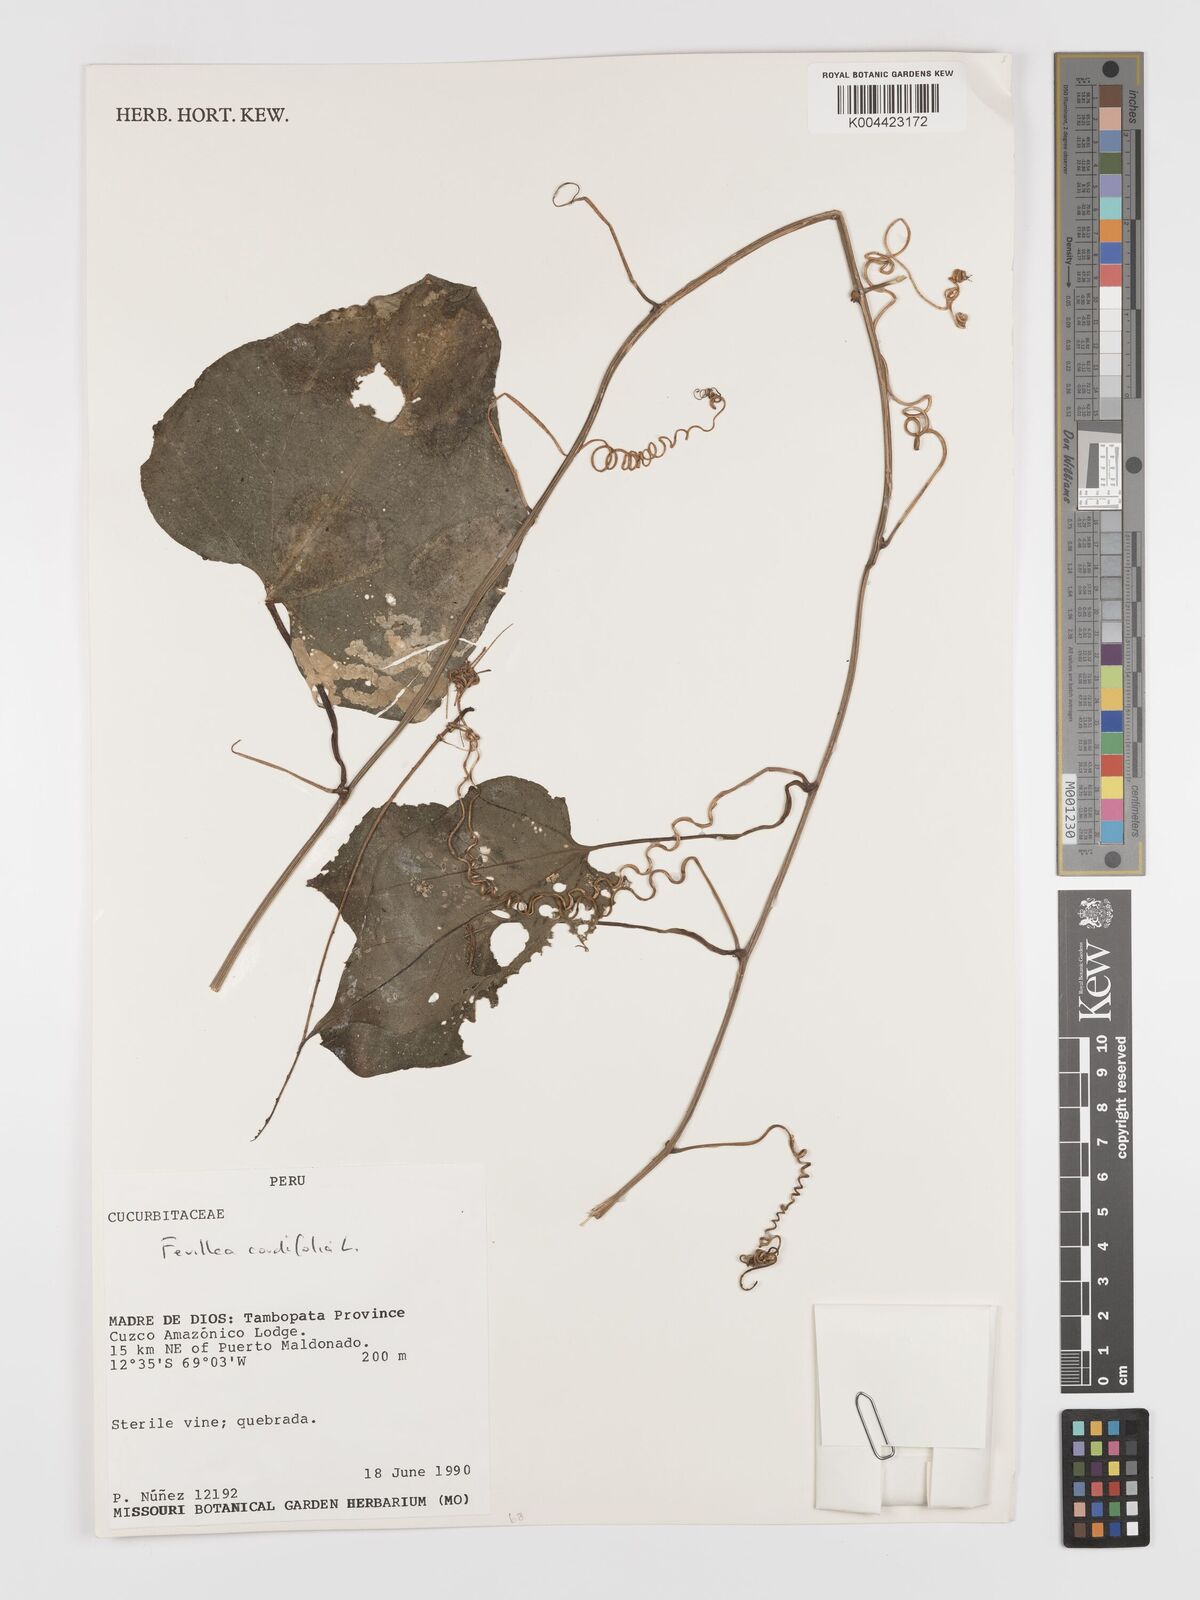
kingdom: Plantae
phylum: Tracheophyta
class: Magnoliopsida
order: Cucurbitales
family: Cucurbitaceae
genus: Fevillea
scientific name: Fevillea
